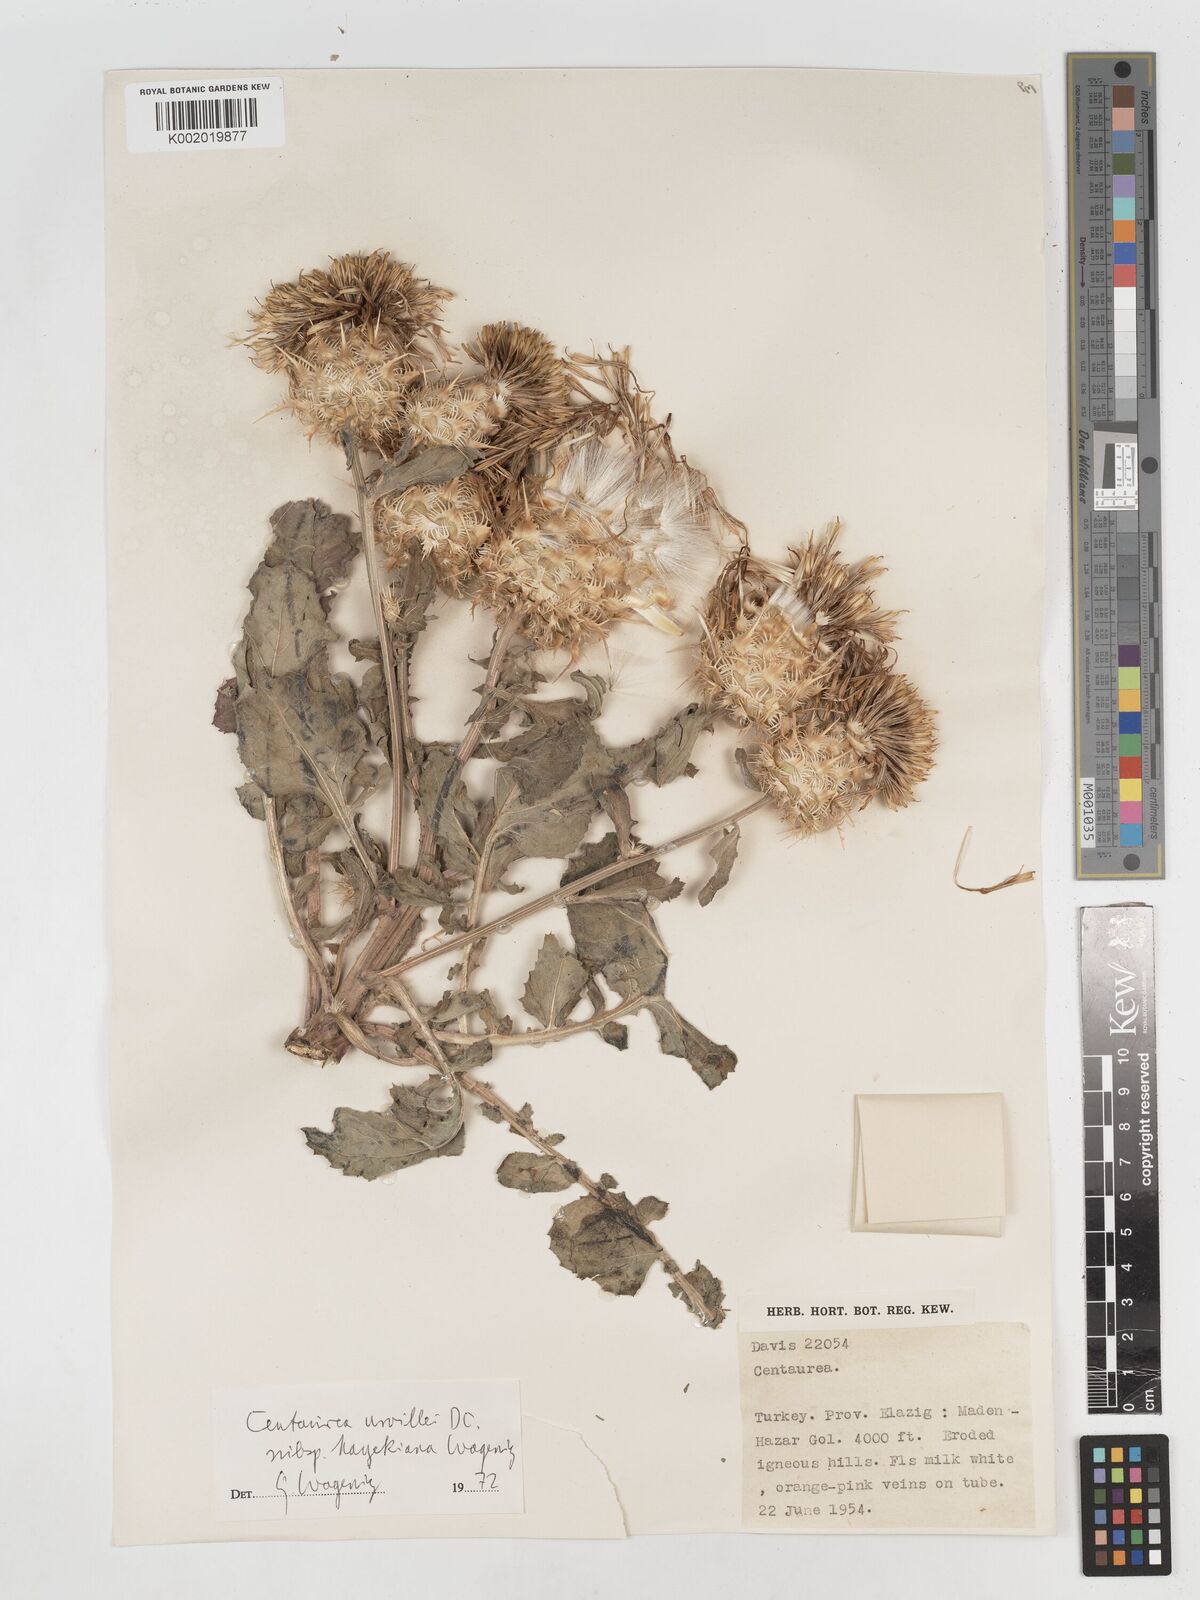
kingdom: Plantae
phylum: Tracheophyta
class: Magnoliopsida
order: Asterales
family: Asteraceae
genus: Centaurea
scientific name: Centaurea urvillei
